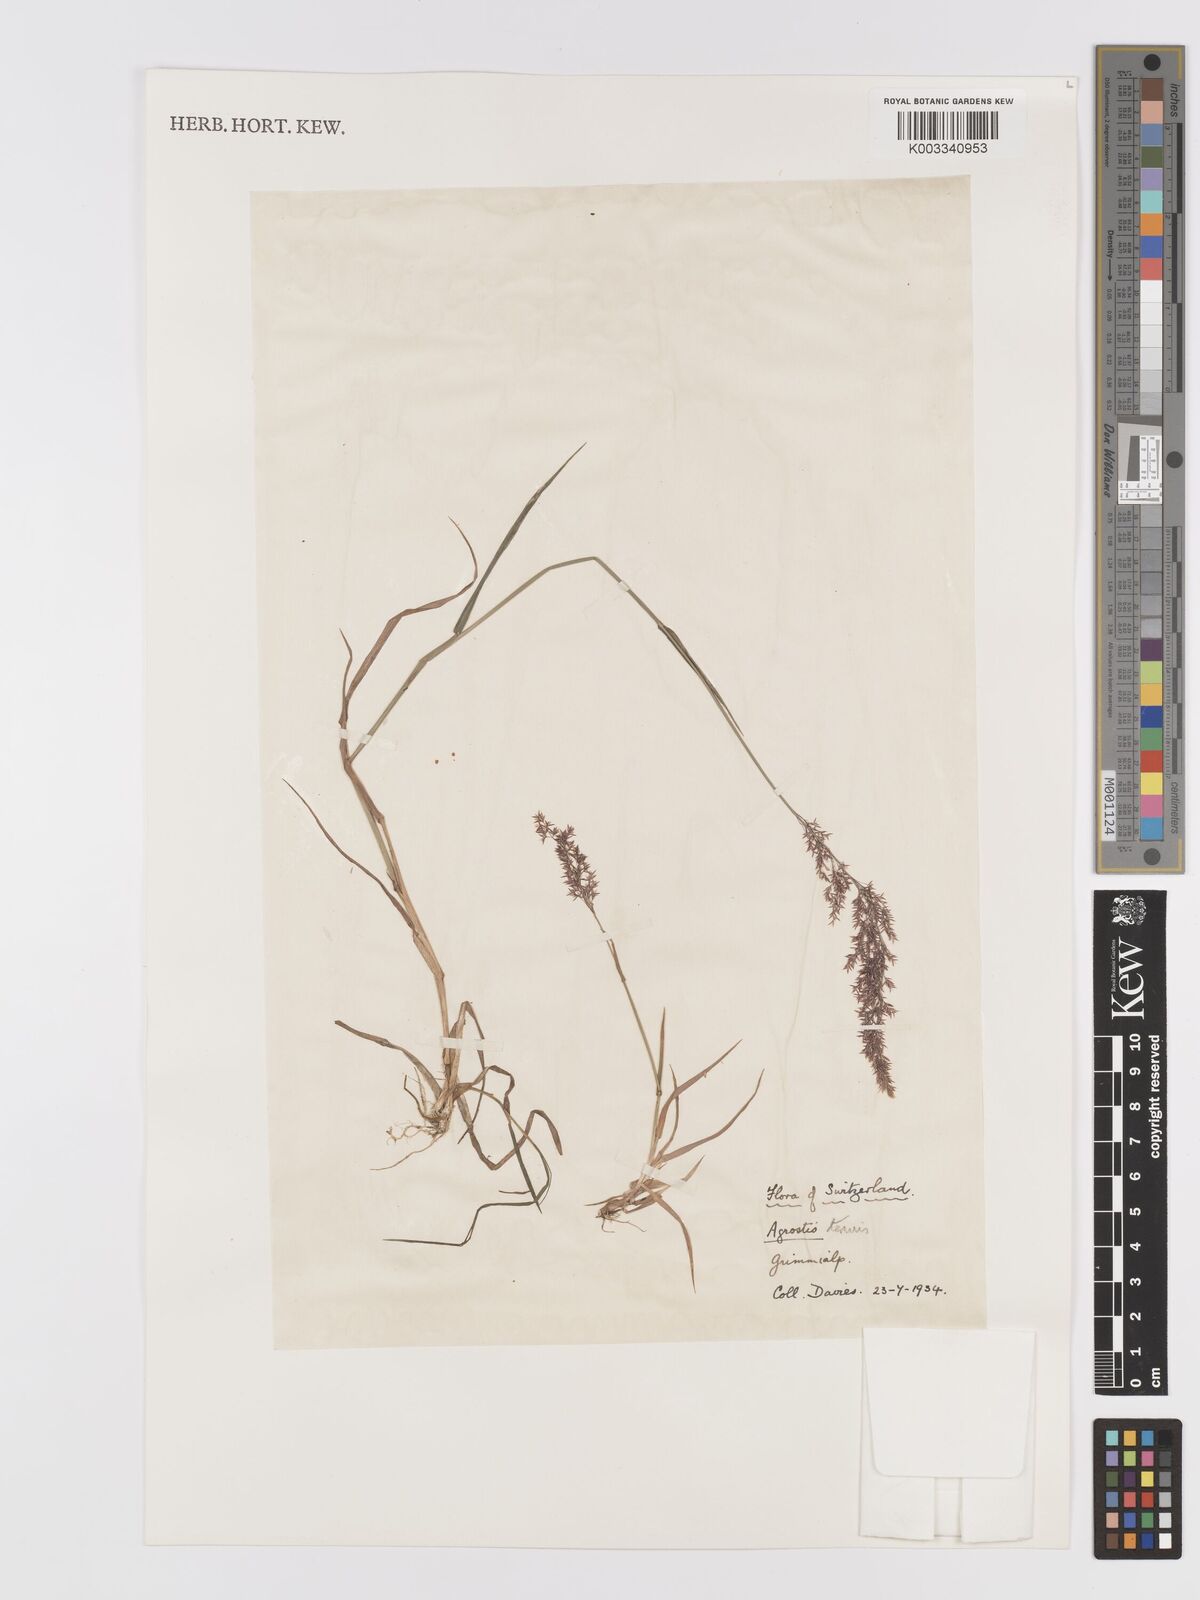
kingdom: Plantae
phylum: Tracheophyta
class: Liliopsida
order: Poales
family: Poaceae
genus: Agrostis
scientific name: Agrostis capillaris
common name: Colonial bentgrass
